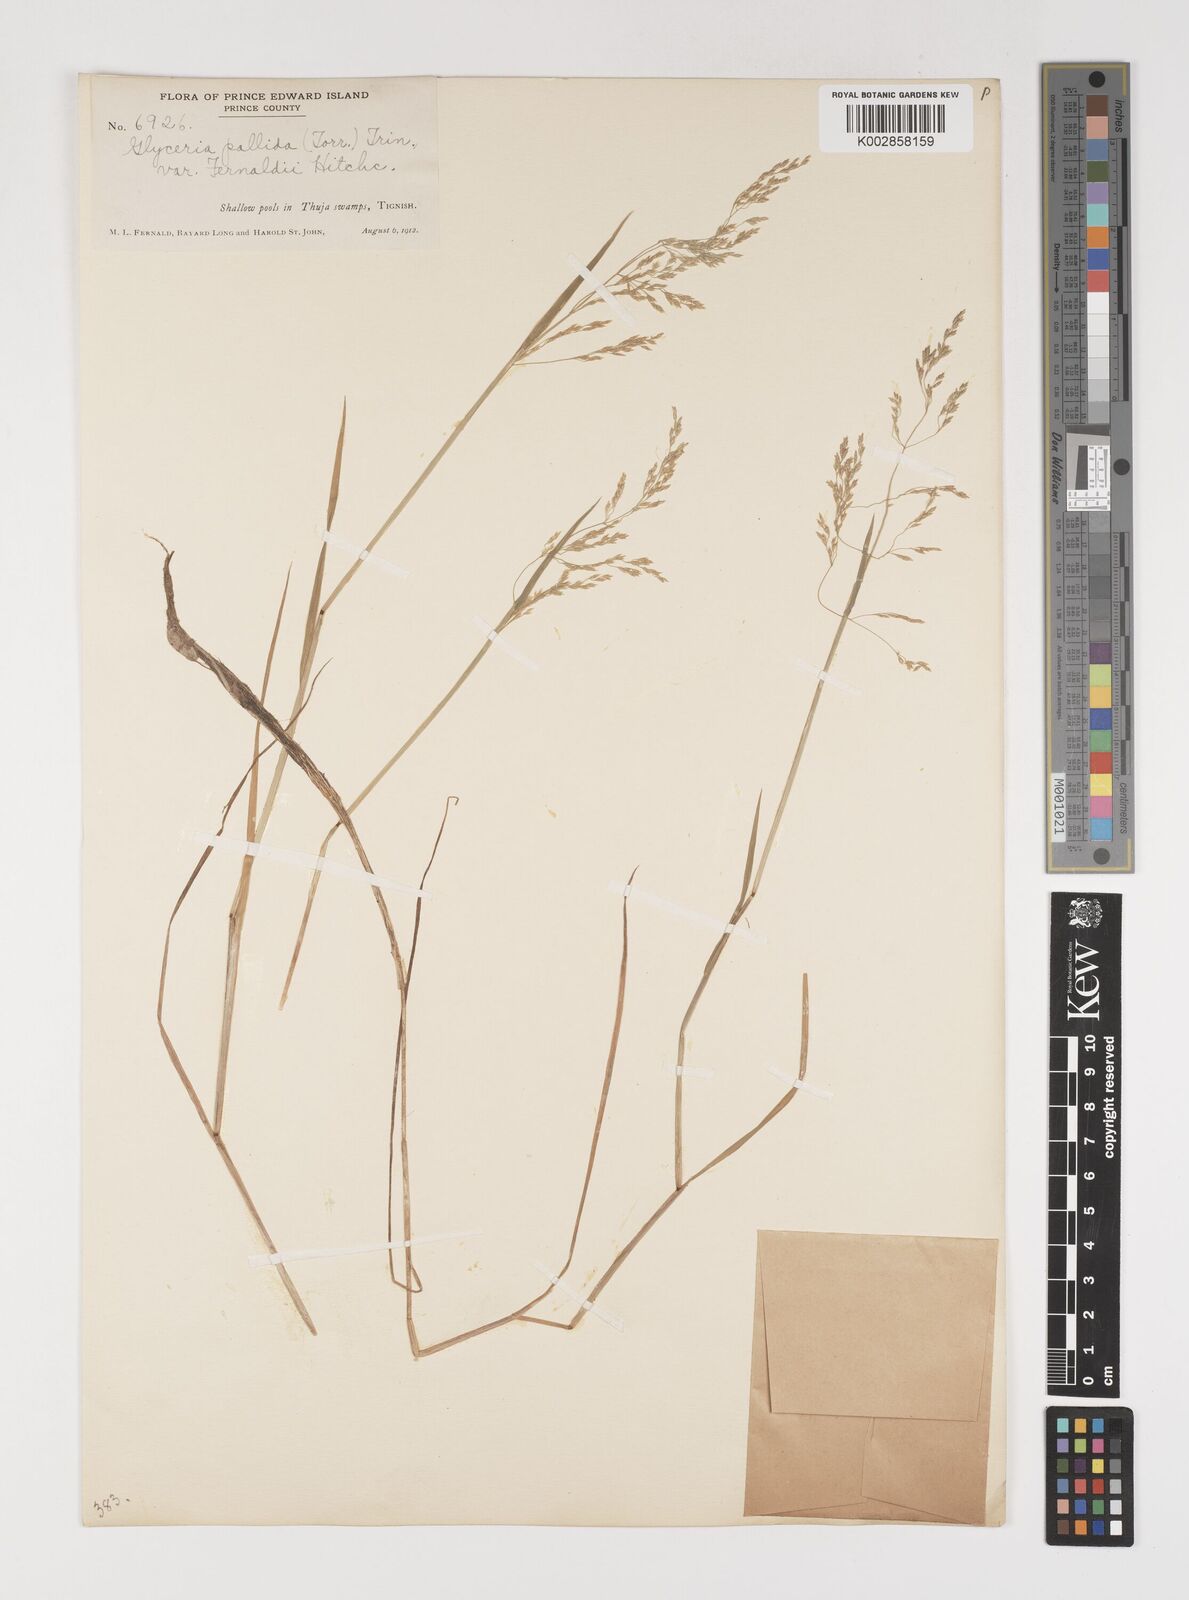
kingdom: Plantae
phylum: Tracheophyta
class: Liliopsida
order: Poales
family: Poaceae
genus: Torreyochloa
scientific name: Torreyochloa pallida
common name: Pale false mannagrass
